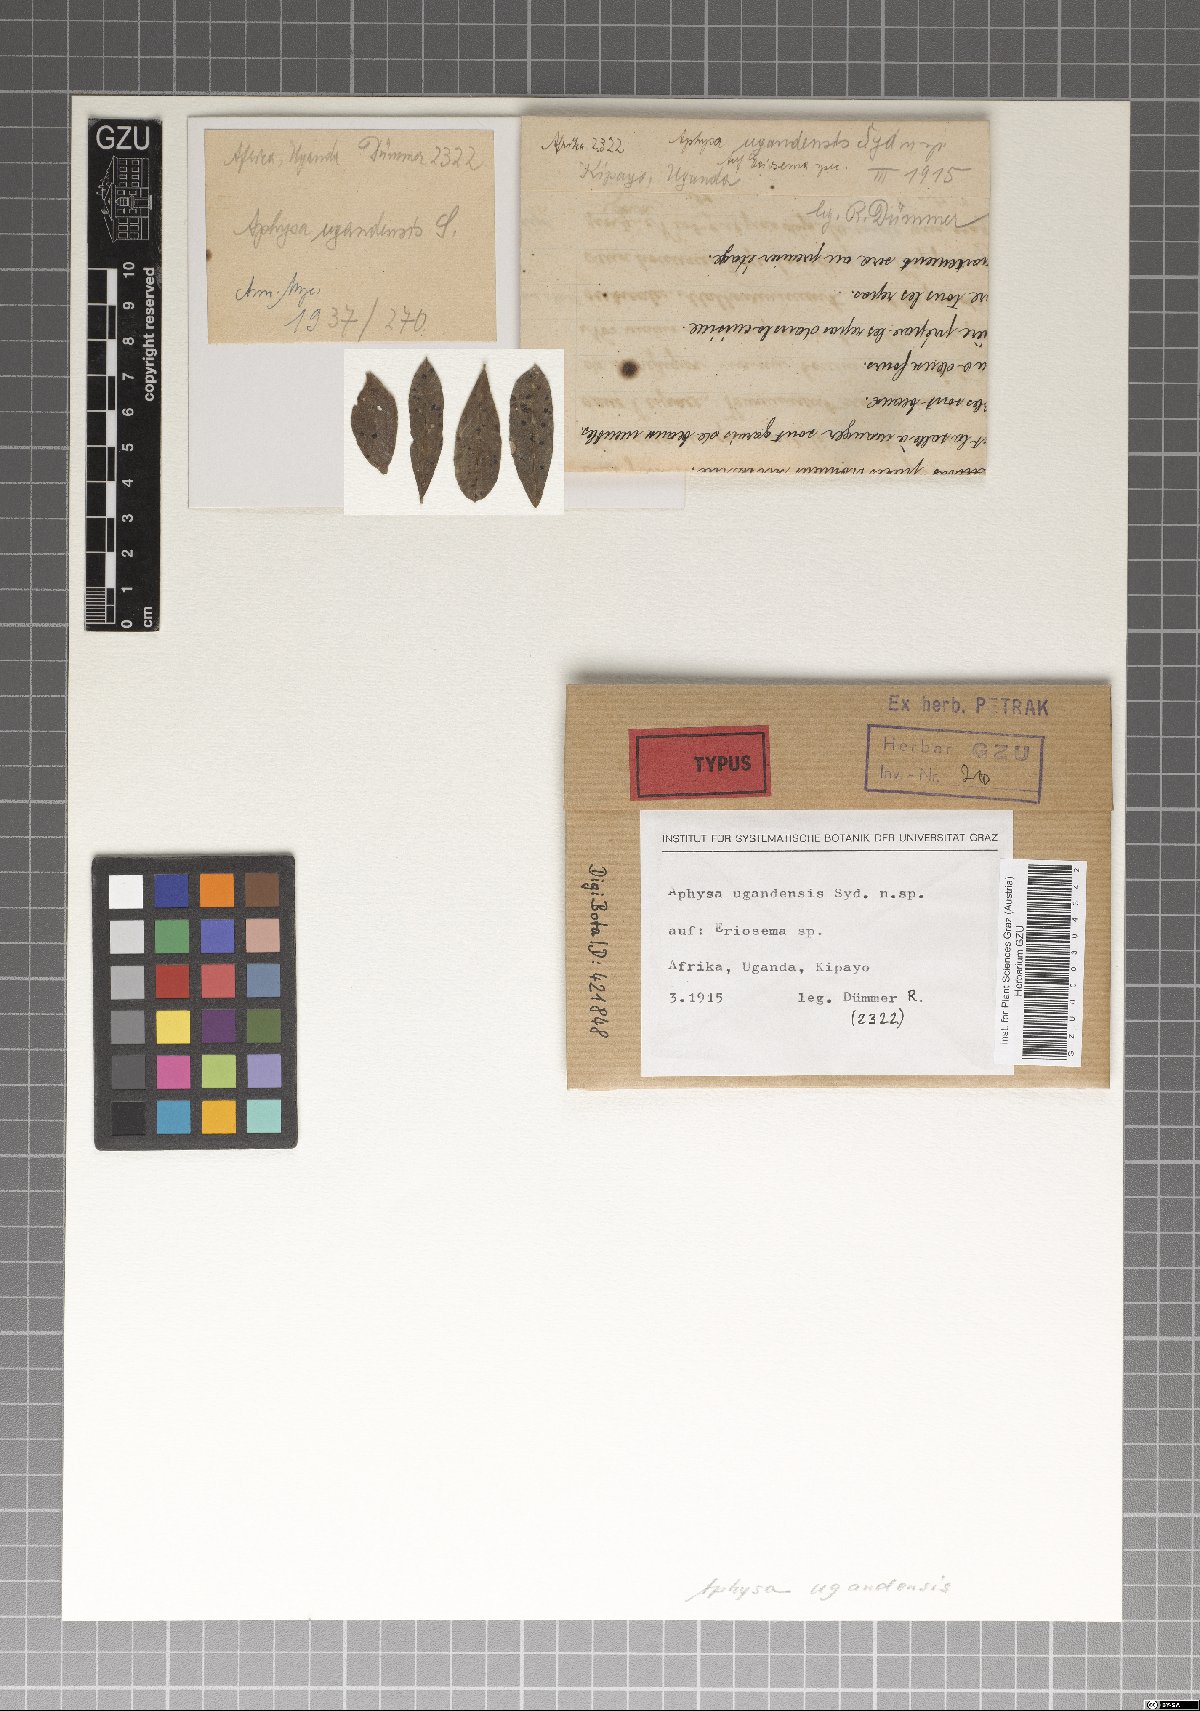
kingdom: Fungi
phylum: Ascomycota
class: Dothideomycetes
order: Venturiales
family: Venturiaceae
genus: Aphysa
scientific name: Aphysa ugandensis
